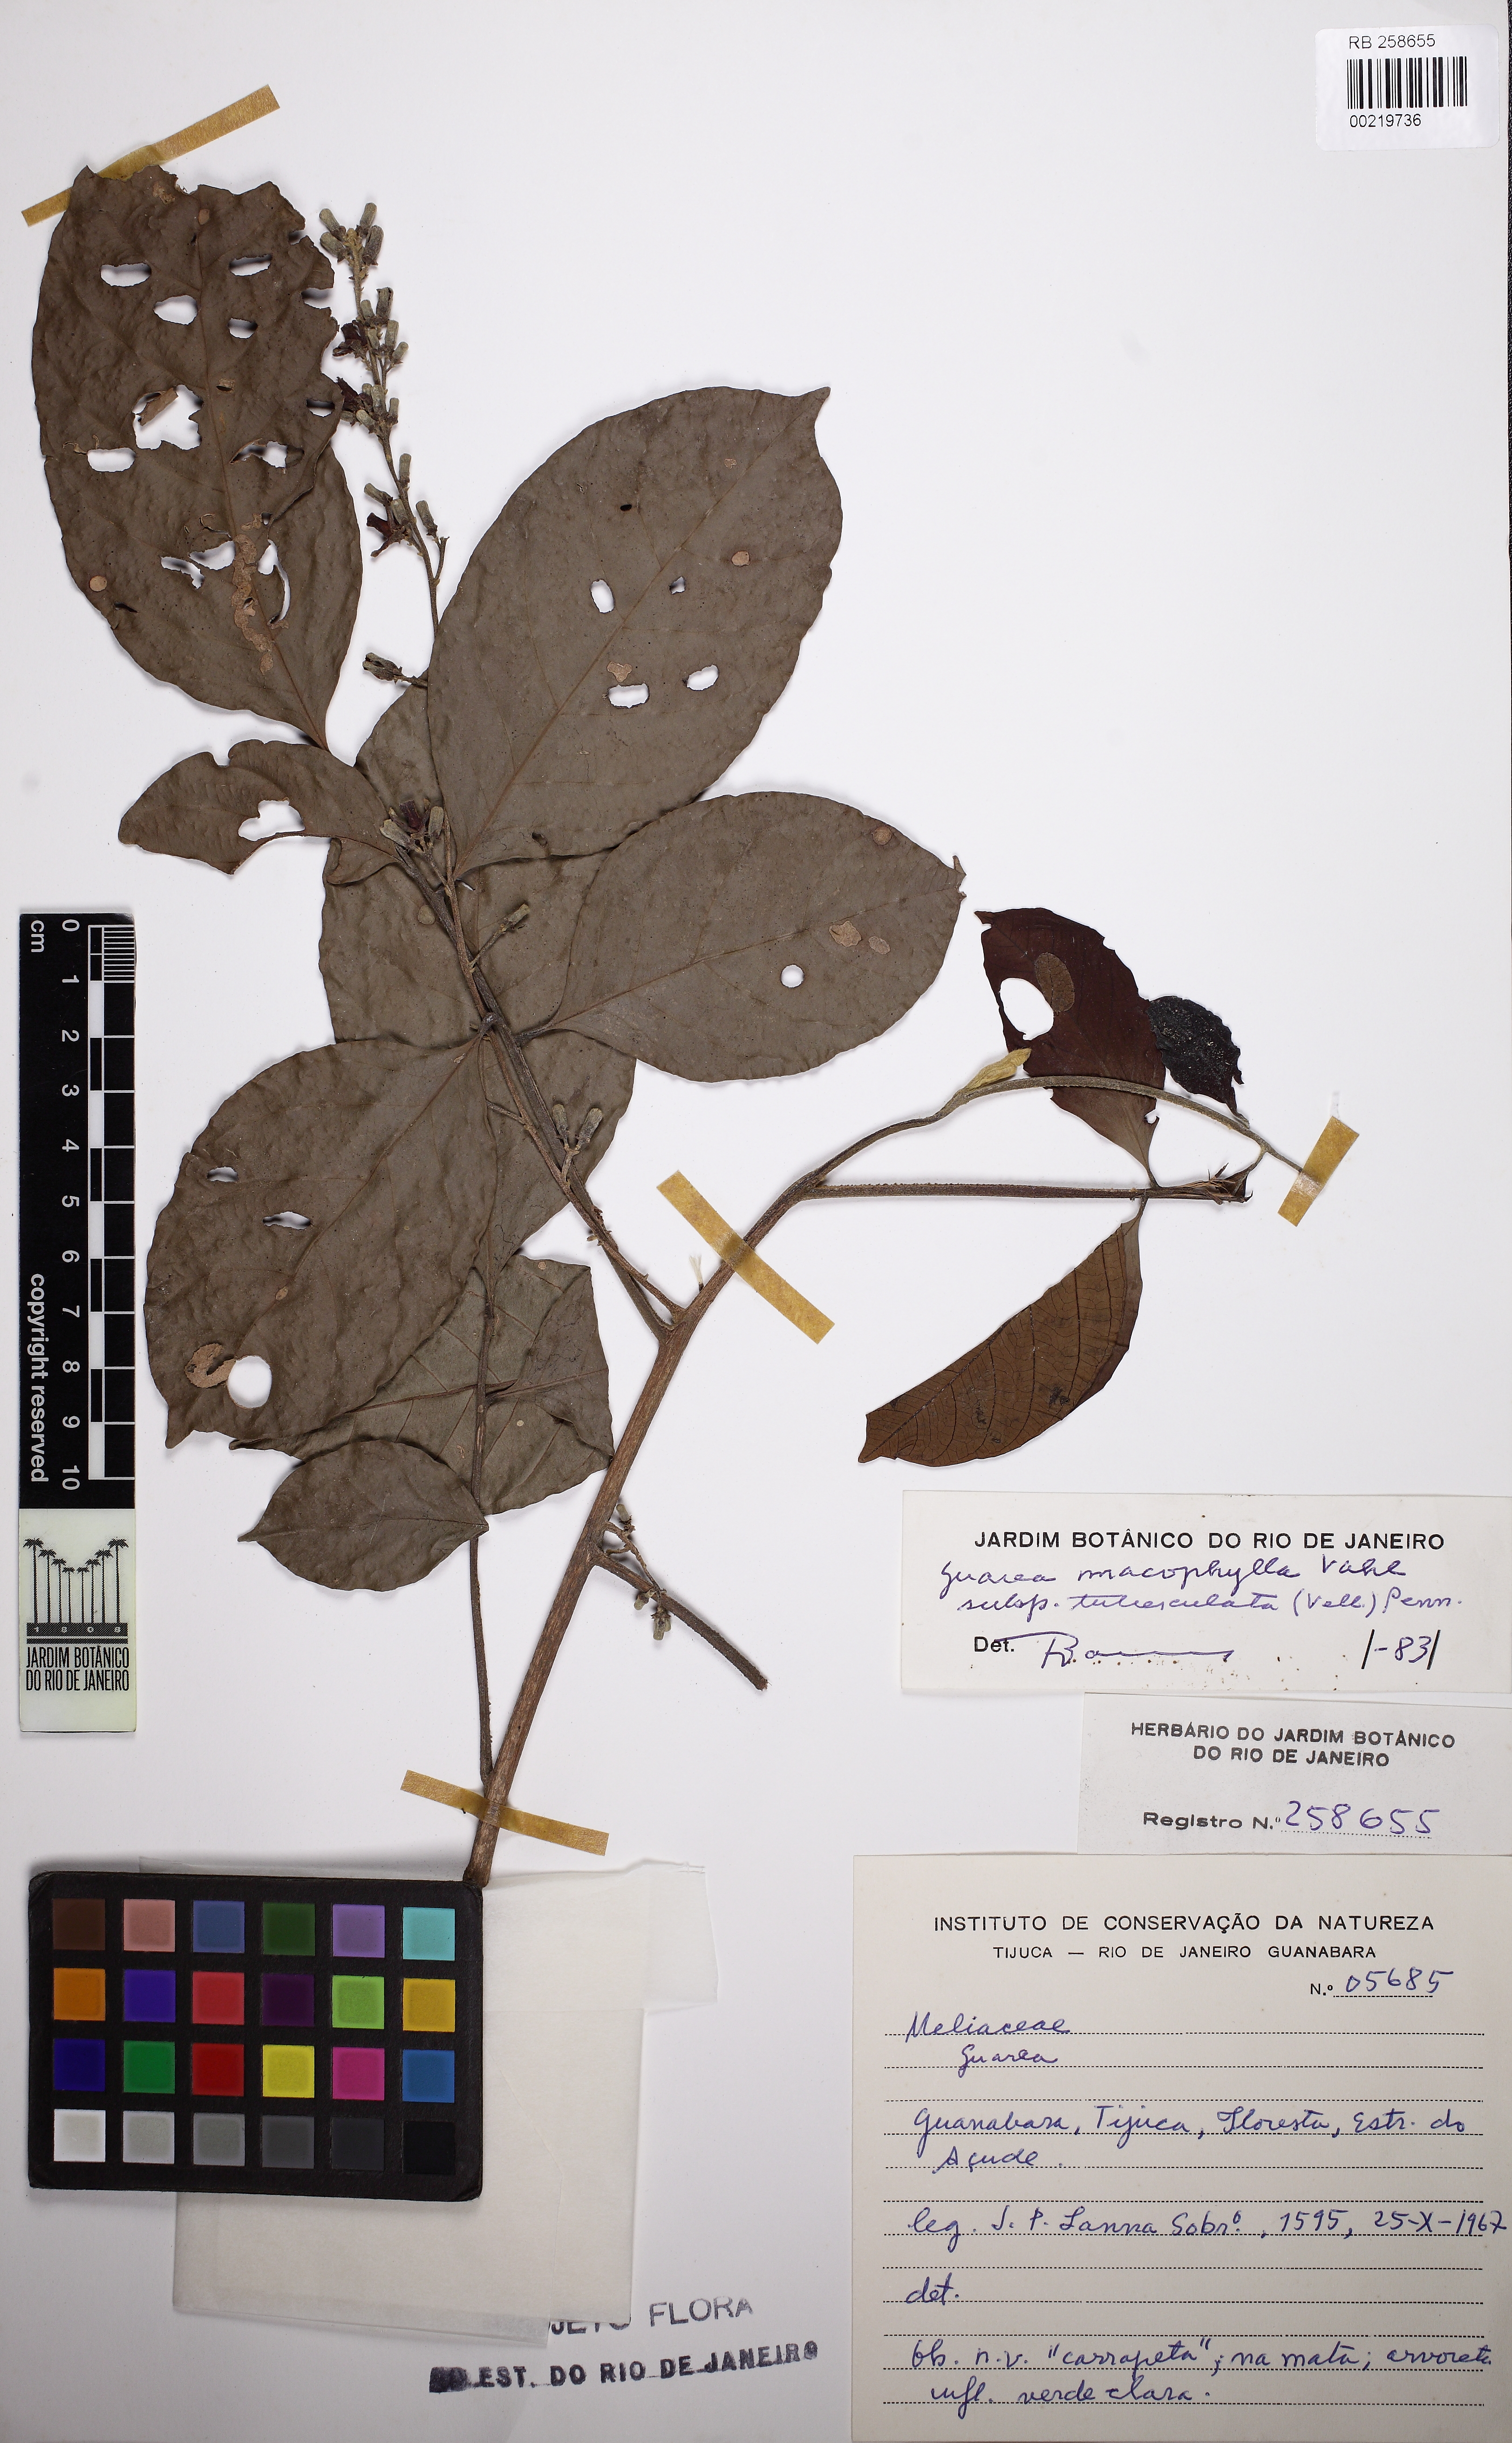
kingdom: Plantae
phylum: Tracheophyta
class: Magnoliopsida
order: Sapindales
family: Meliaceae
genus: Guarea
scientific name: Guarea macrophylla
